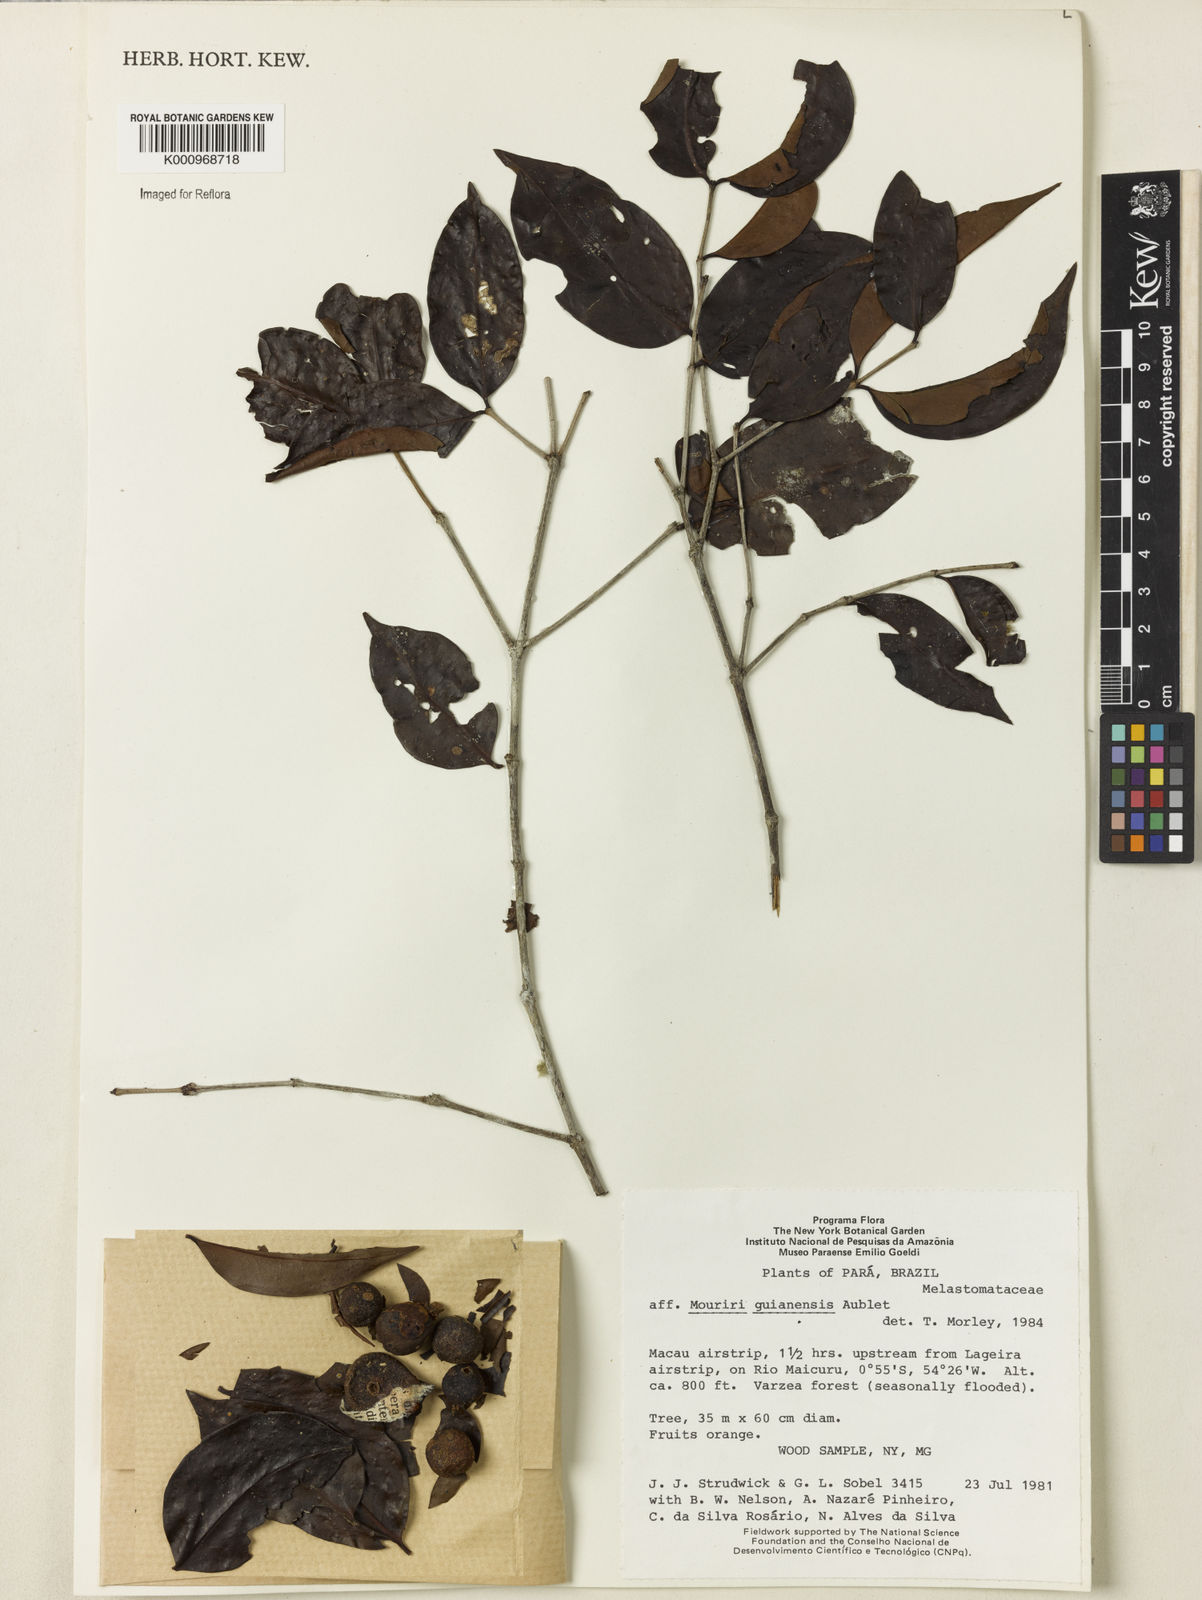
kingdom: Plantae
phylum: Tracheophyta
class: Magnoliopsida
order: Myrtales
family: Melastomataceae
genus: Mouriri
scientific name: Mouriri guianensis
